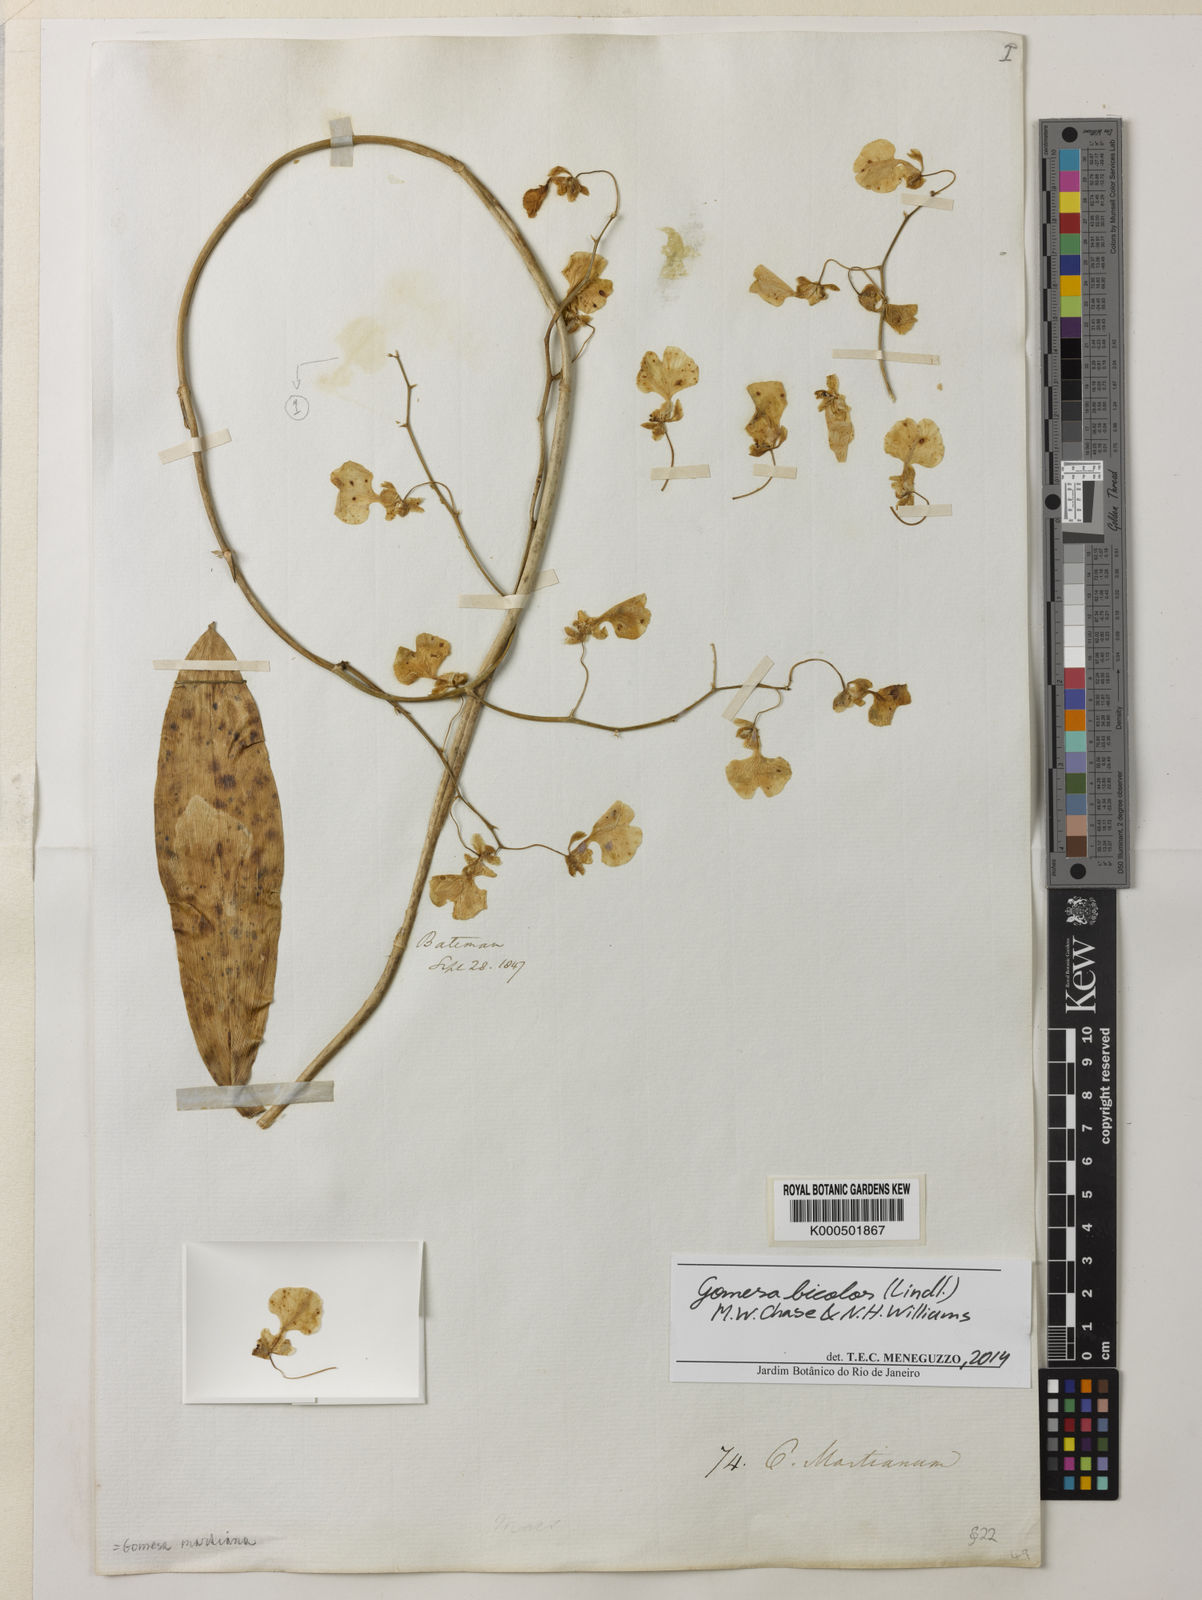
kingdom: Plantae
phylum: Tracheophyta
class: Liliopsida
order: Asparagales
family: Orchidaceae
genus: Gomesa
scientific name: Gomesa bicolor
